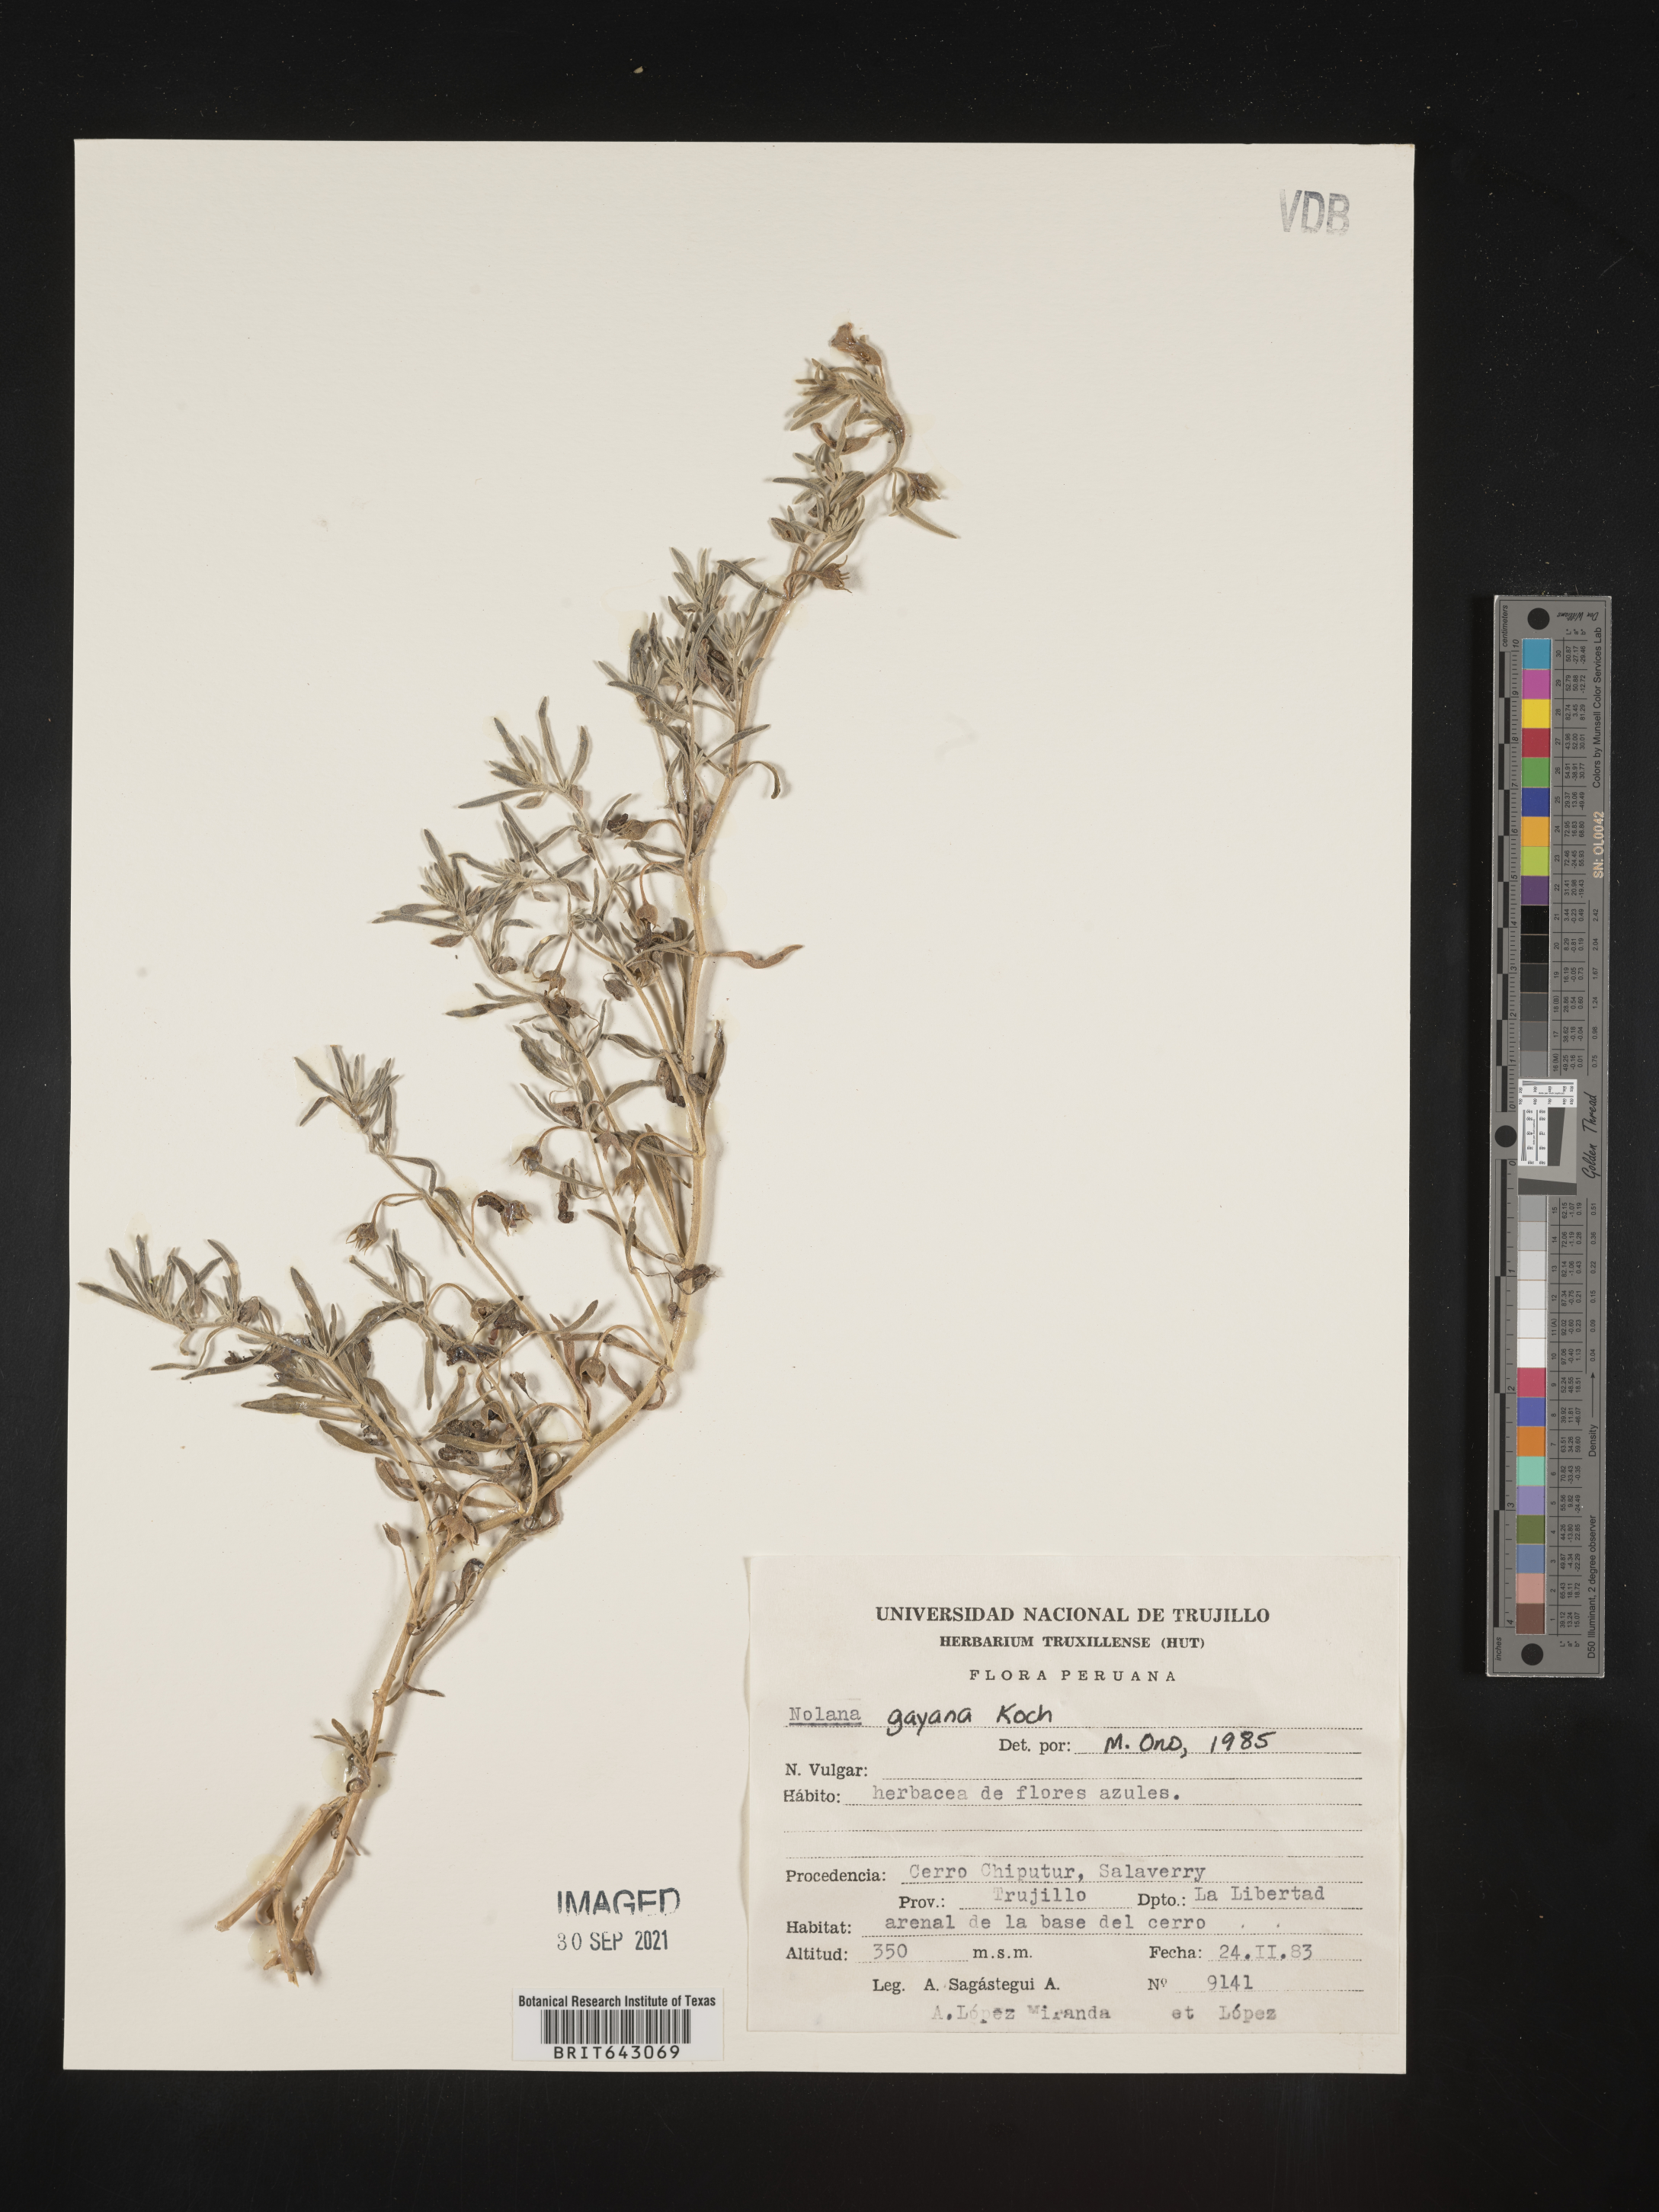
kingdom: Plantae
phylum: Tracheophyta
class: Magnoliopsida
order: Solanales
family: Solanaceae
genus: Nolana
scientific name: Nolana
